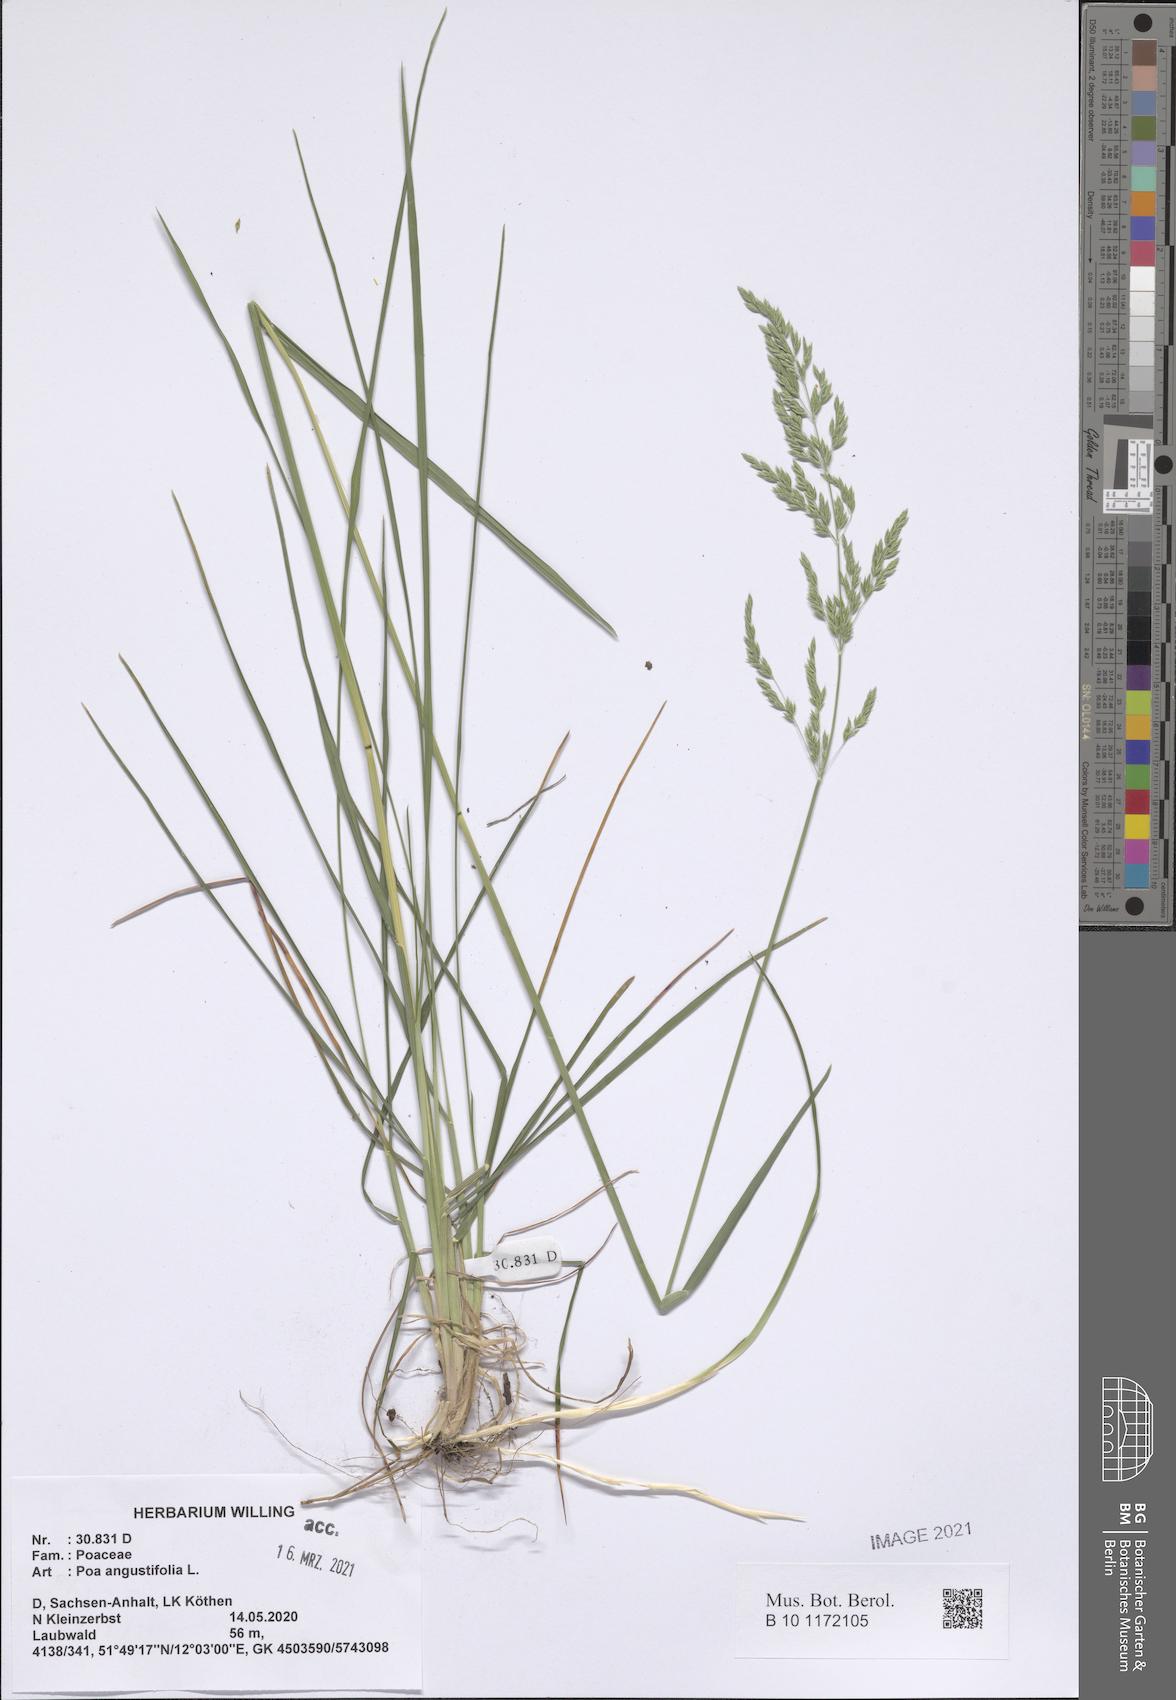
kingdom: Plantae
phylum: Tracheophyta
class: Liliopsida
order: Poales
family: Poaceae
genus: Poa
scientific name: Poa angustifolia
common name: Narrow-leaved meadow-grass
